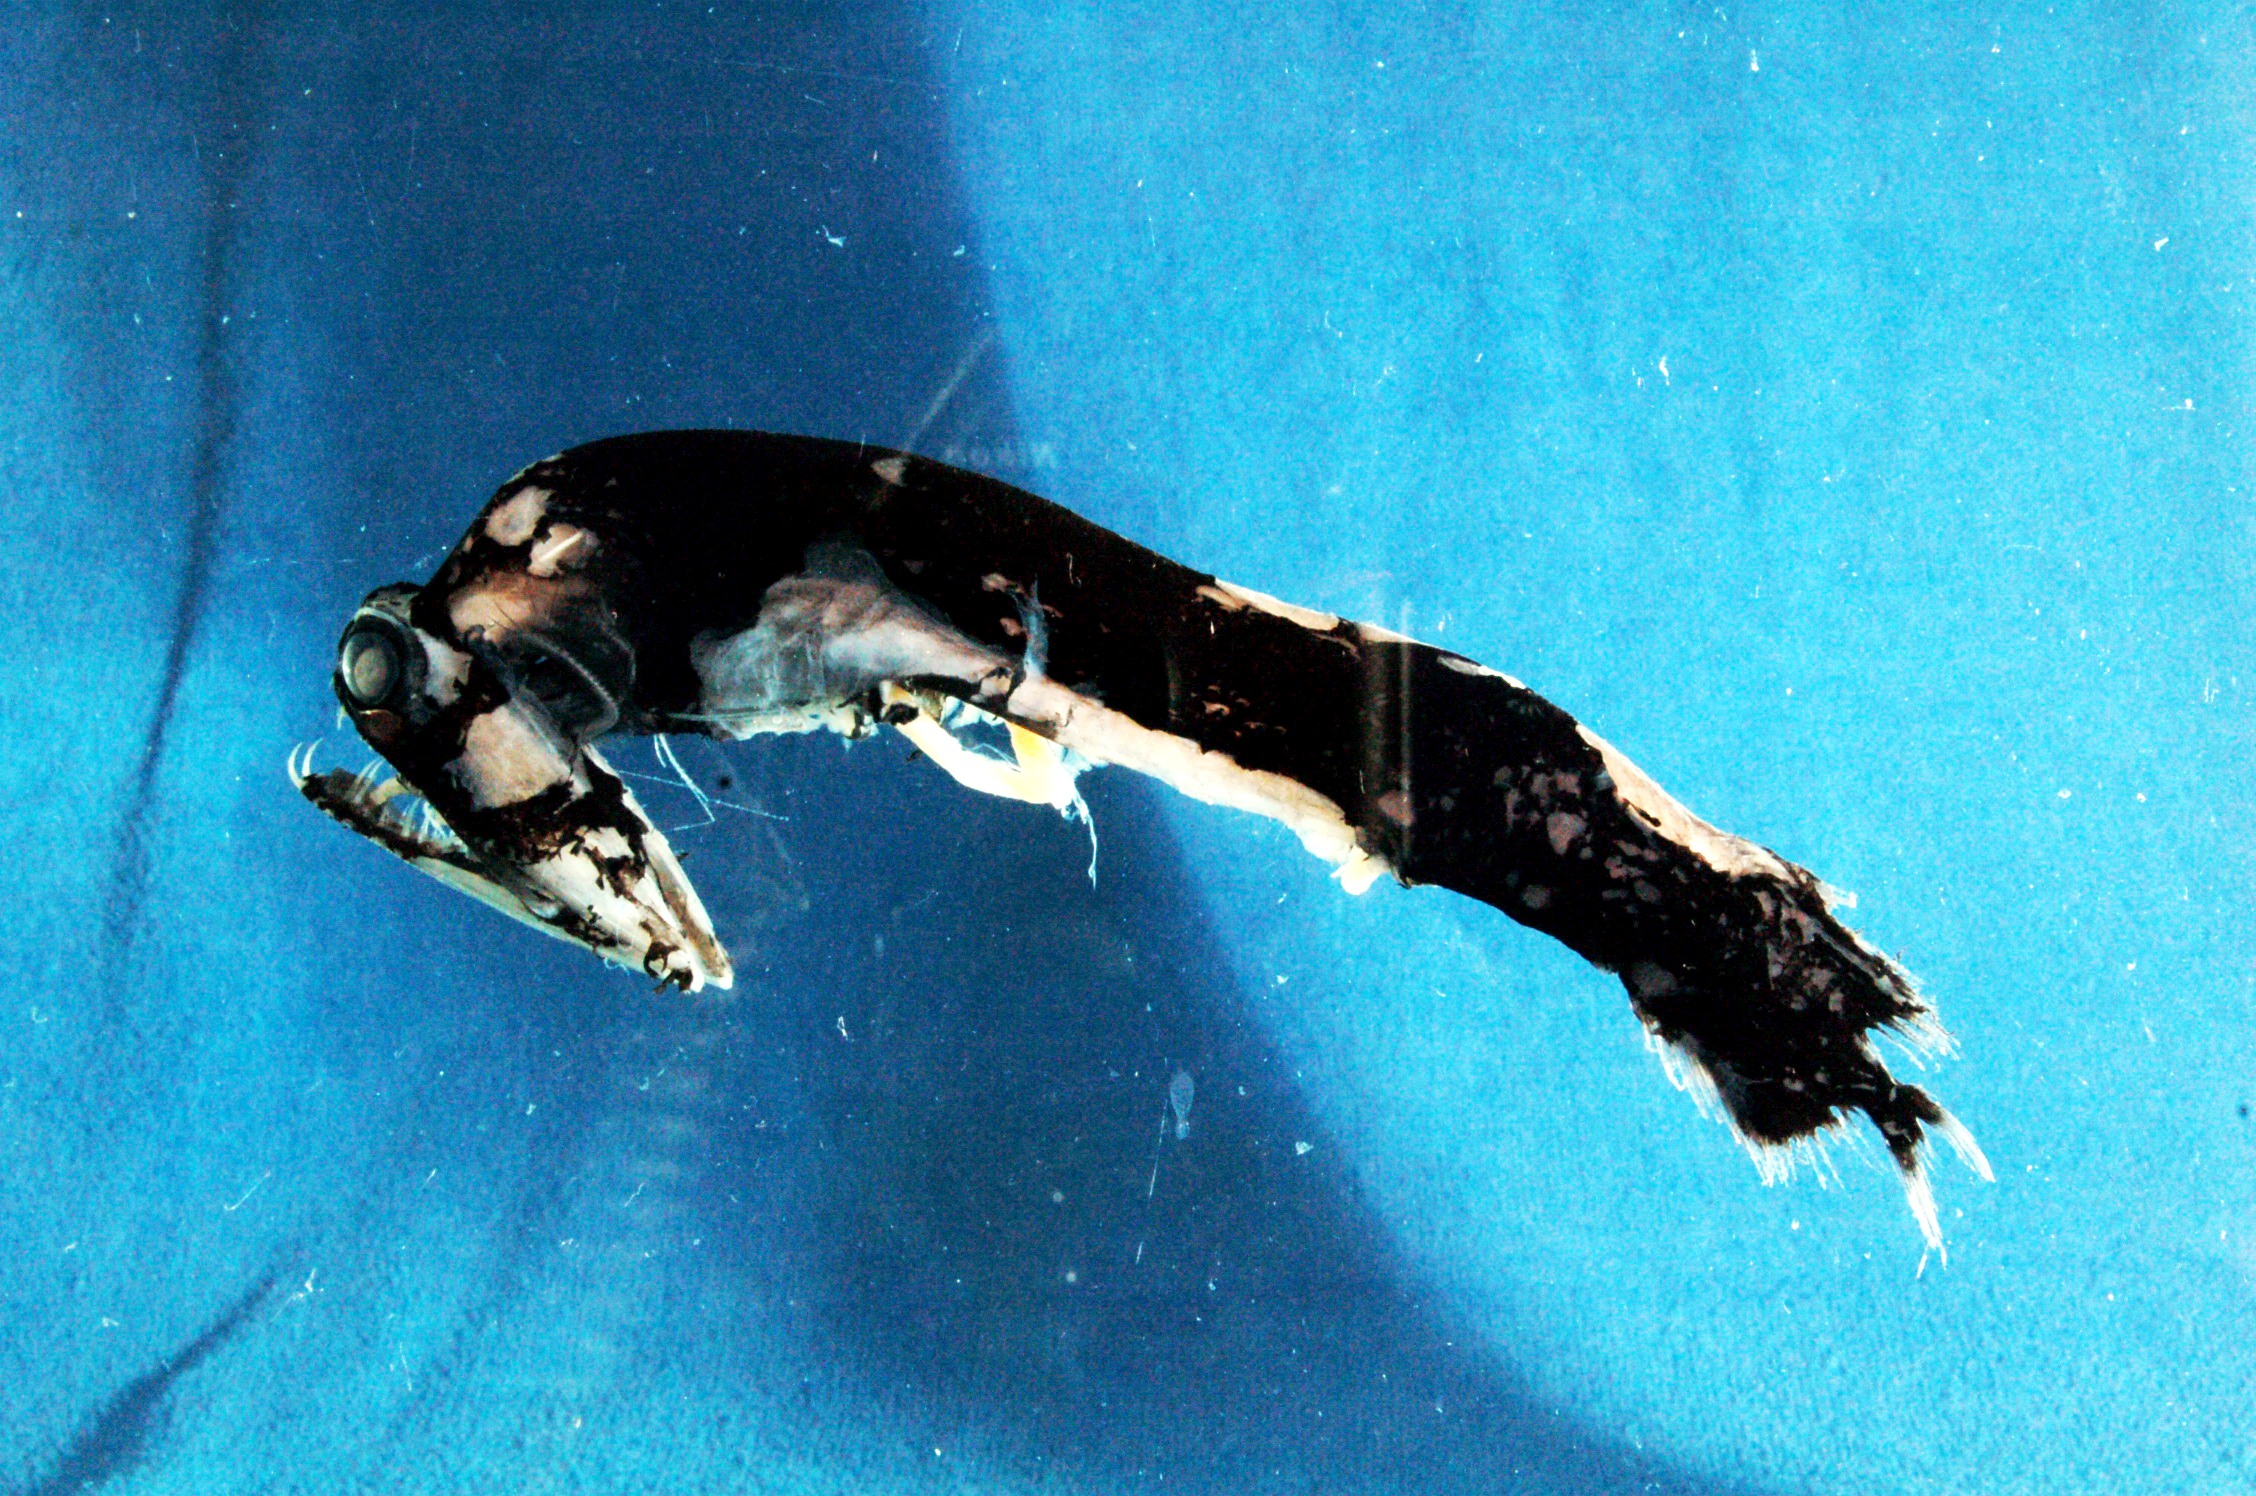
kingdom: Animalia
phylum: Chordata
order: Stomiiformes
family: Stomiidae
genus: Malacosteus
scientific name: Malacosteus niger
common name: Black hinged-head
